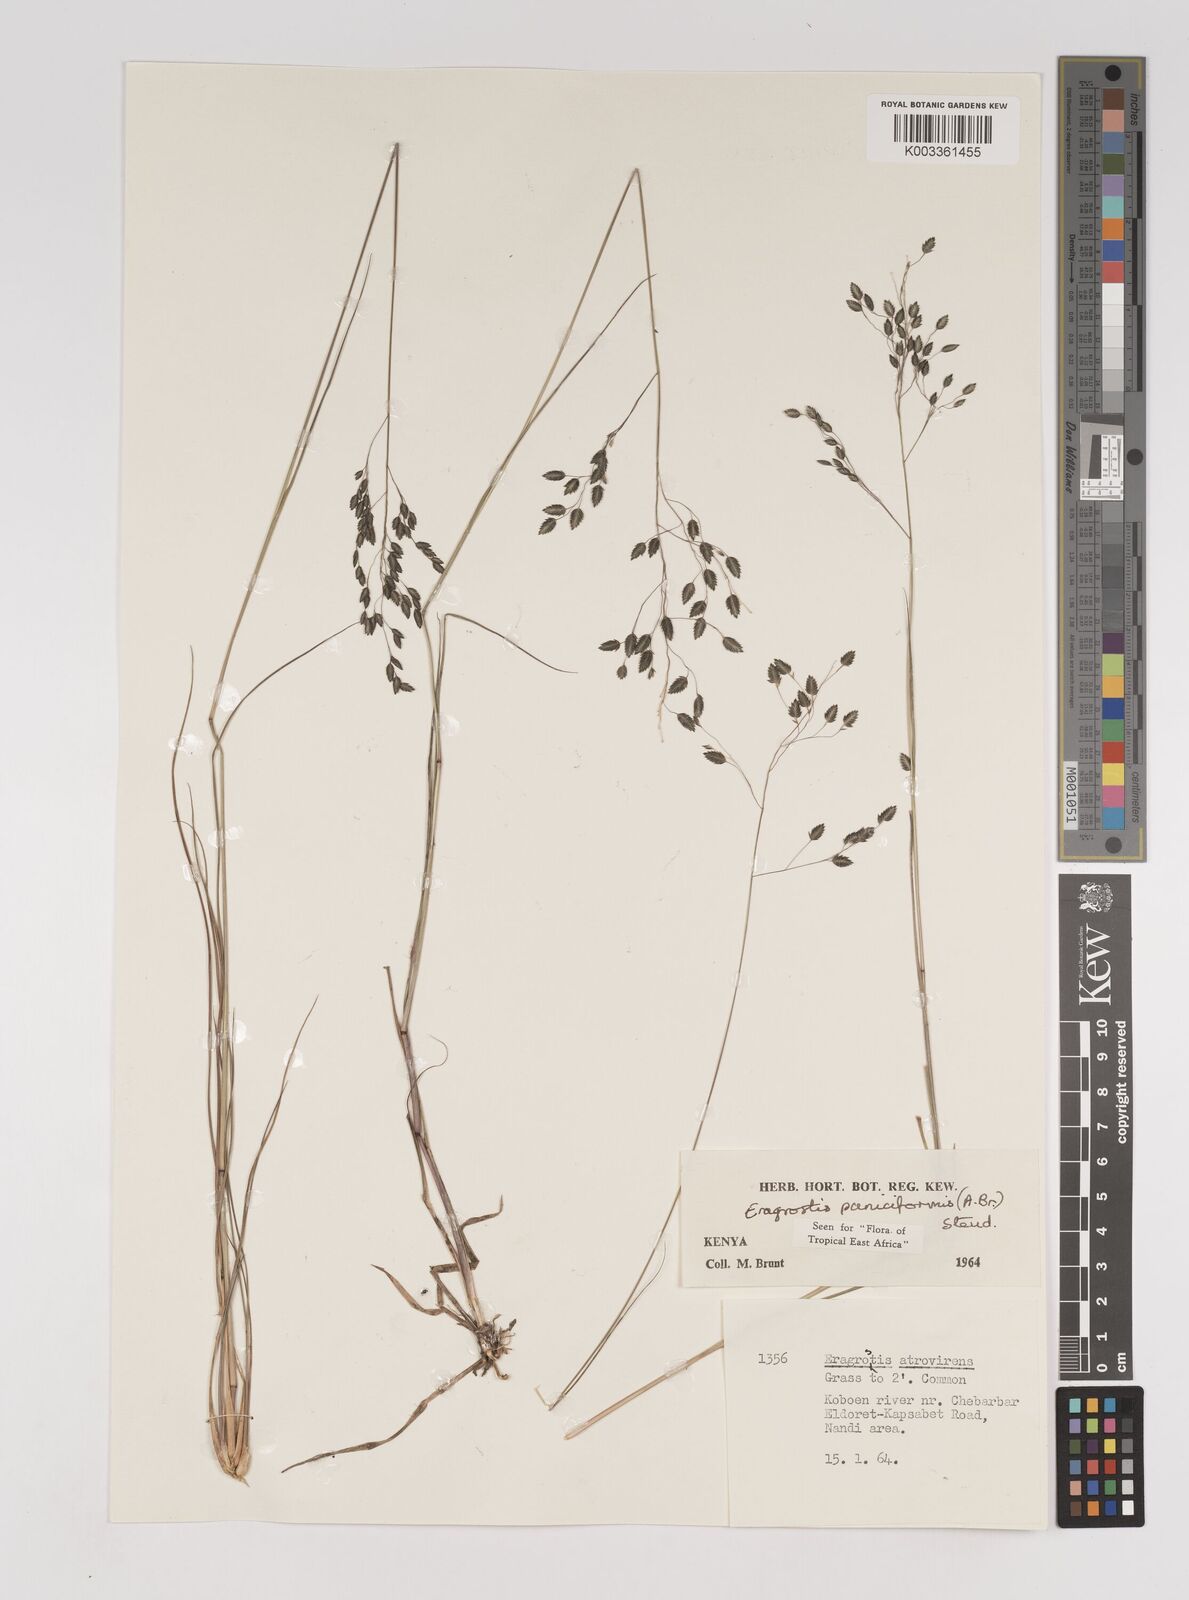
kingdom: Plantae
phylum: Tracheophyta
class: Liliopsida
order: Poales
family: Poaceae
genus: Eragrostis
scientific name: Eragrostis paniciformis
